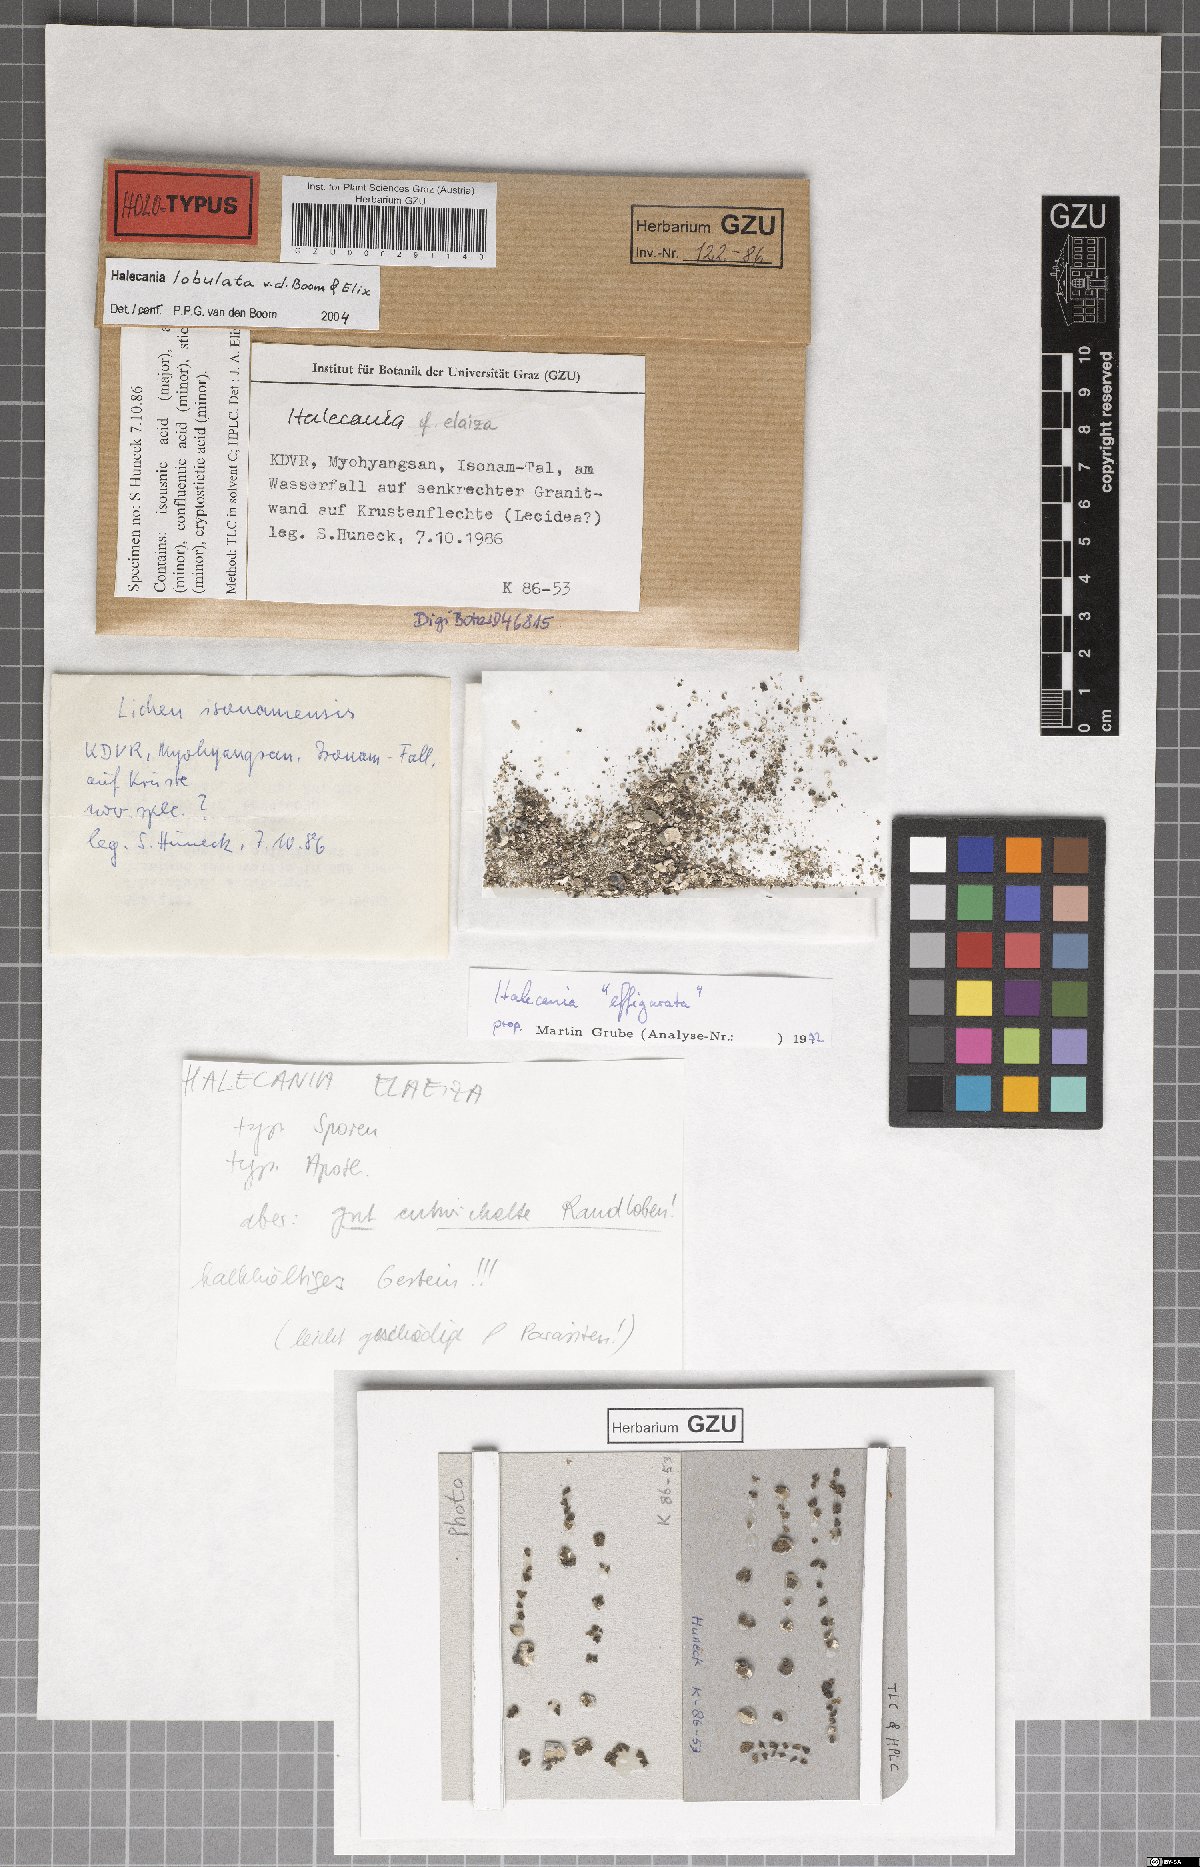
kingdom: Fungi
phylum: Ascomycota
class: Lecanoromycetes
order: Teloschistales
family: Leprocaulaceae
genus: Halecania
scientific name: Halecania lobulata
